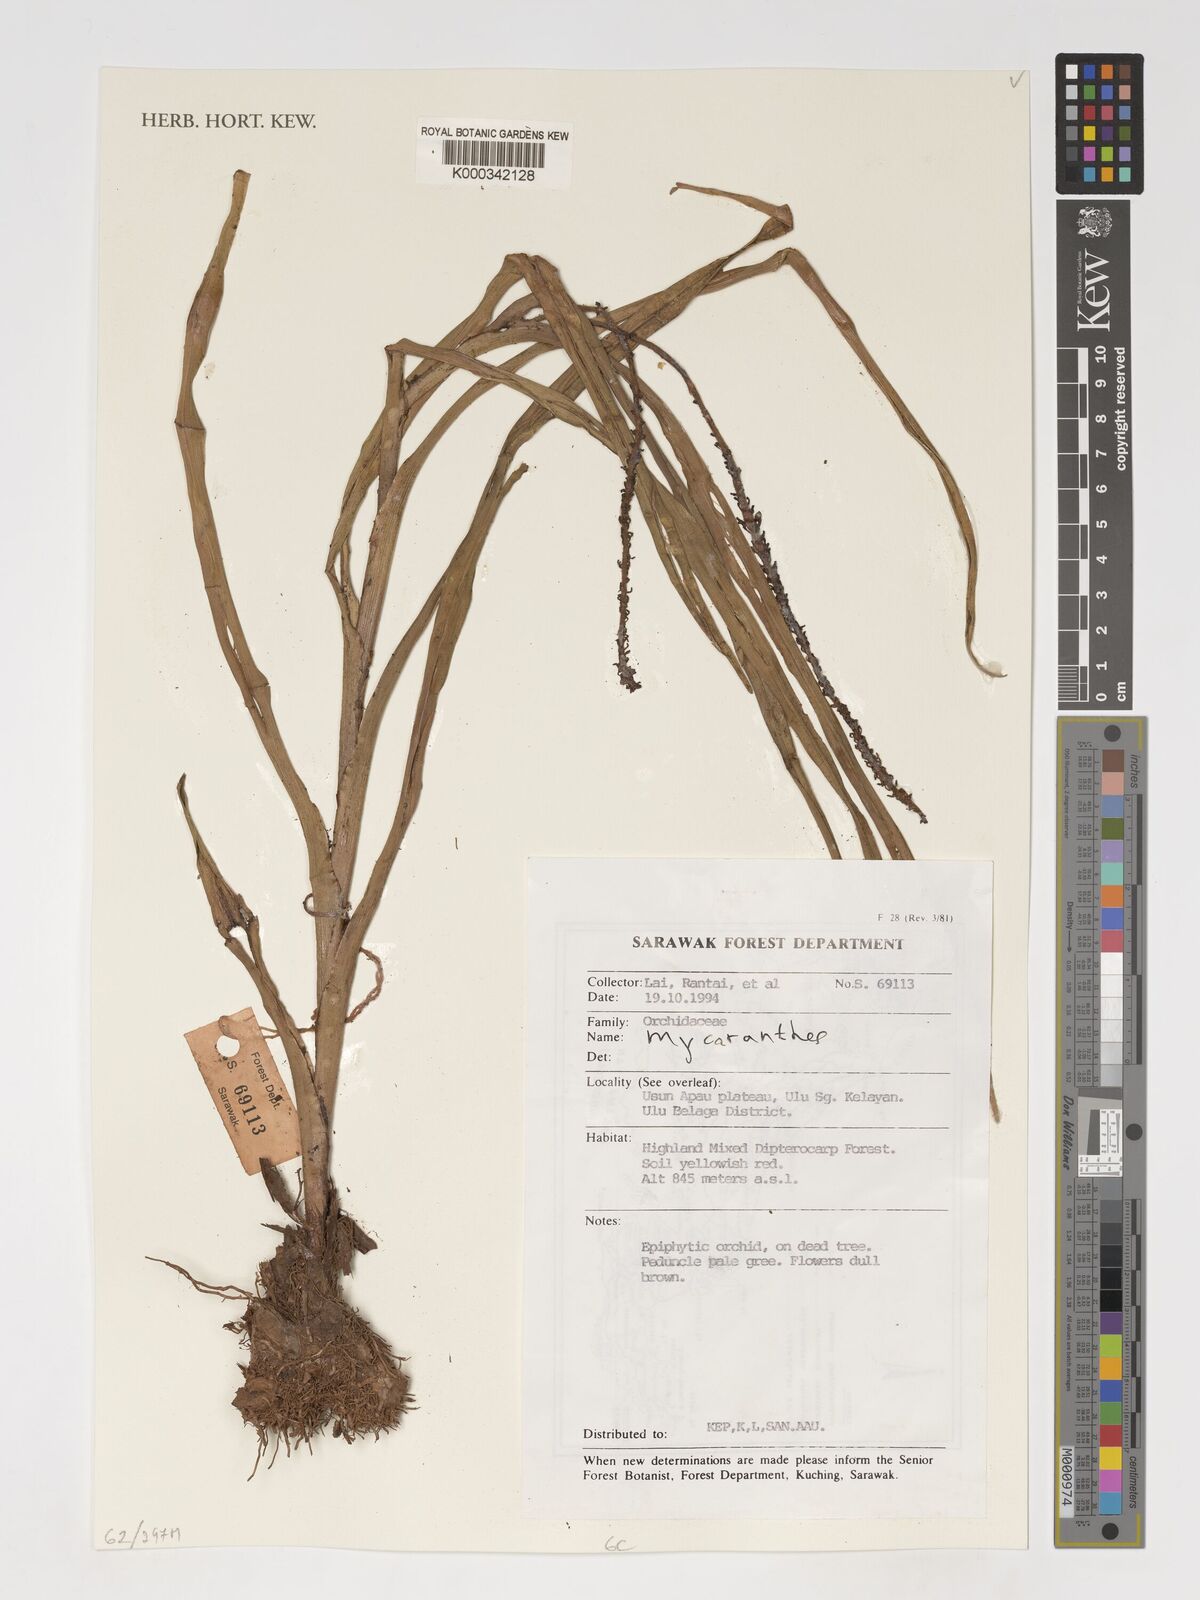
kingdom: Plantae
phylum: Tracheophyta
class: Liliopsida
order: Asparagales
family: Orchidaceae
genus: Mycaranthes
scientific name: Mycaranthes
